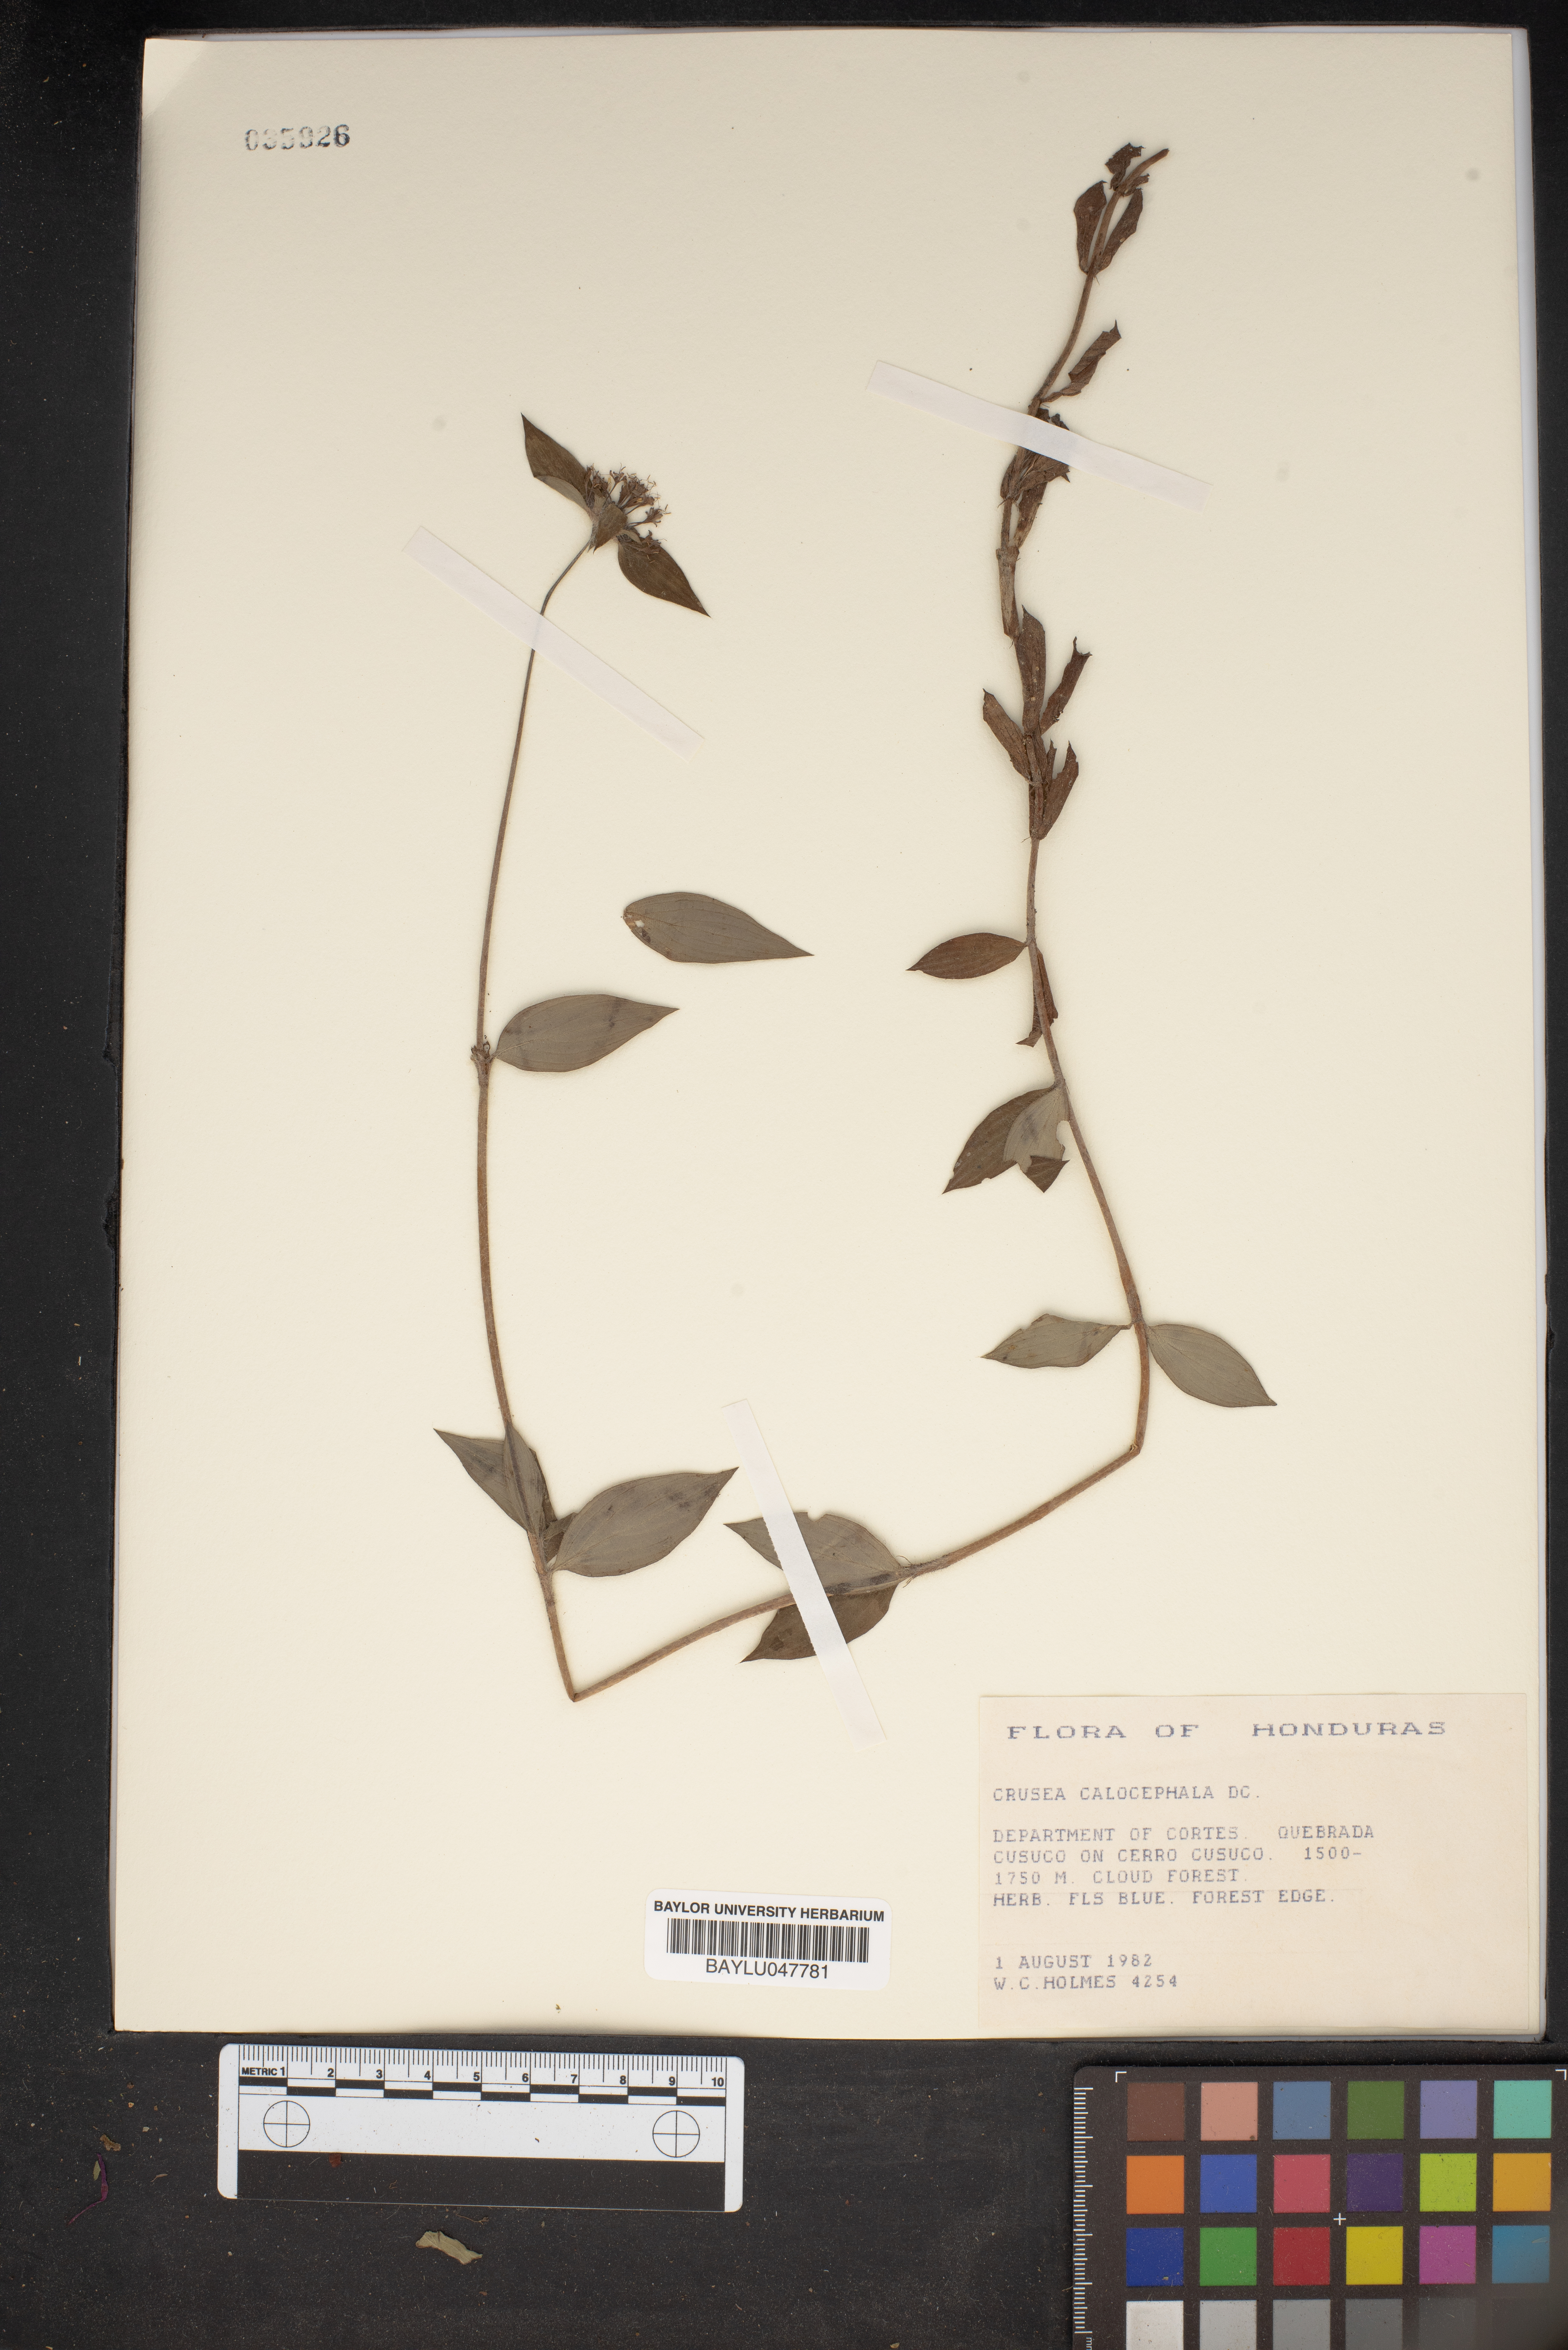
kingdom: Plantae
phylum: Tracheophyta
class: Magnoliopsida
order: Gentianales
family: Rubiaceae
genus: Crusea
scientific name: Crusea calocephala
